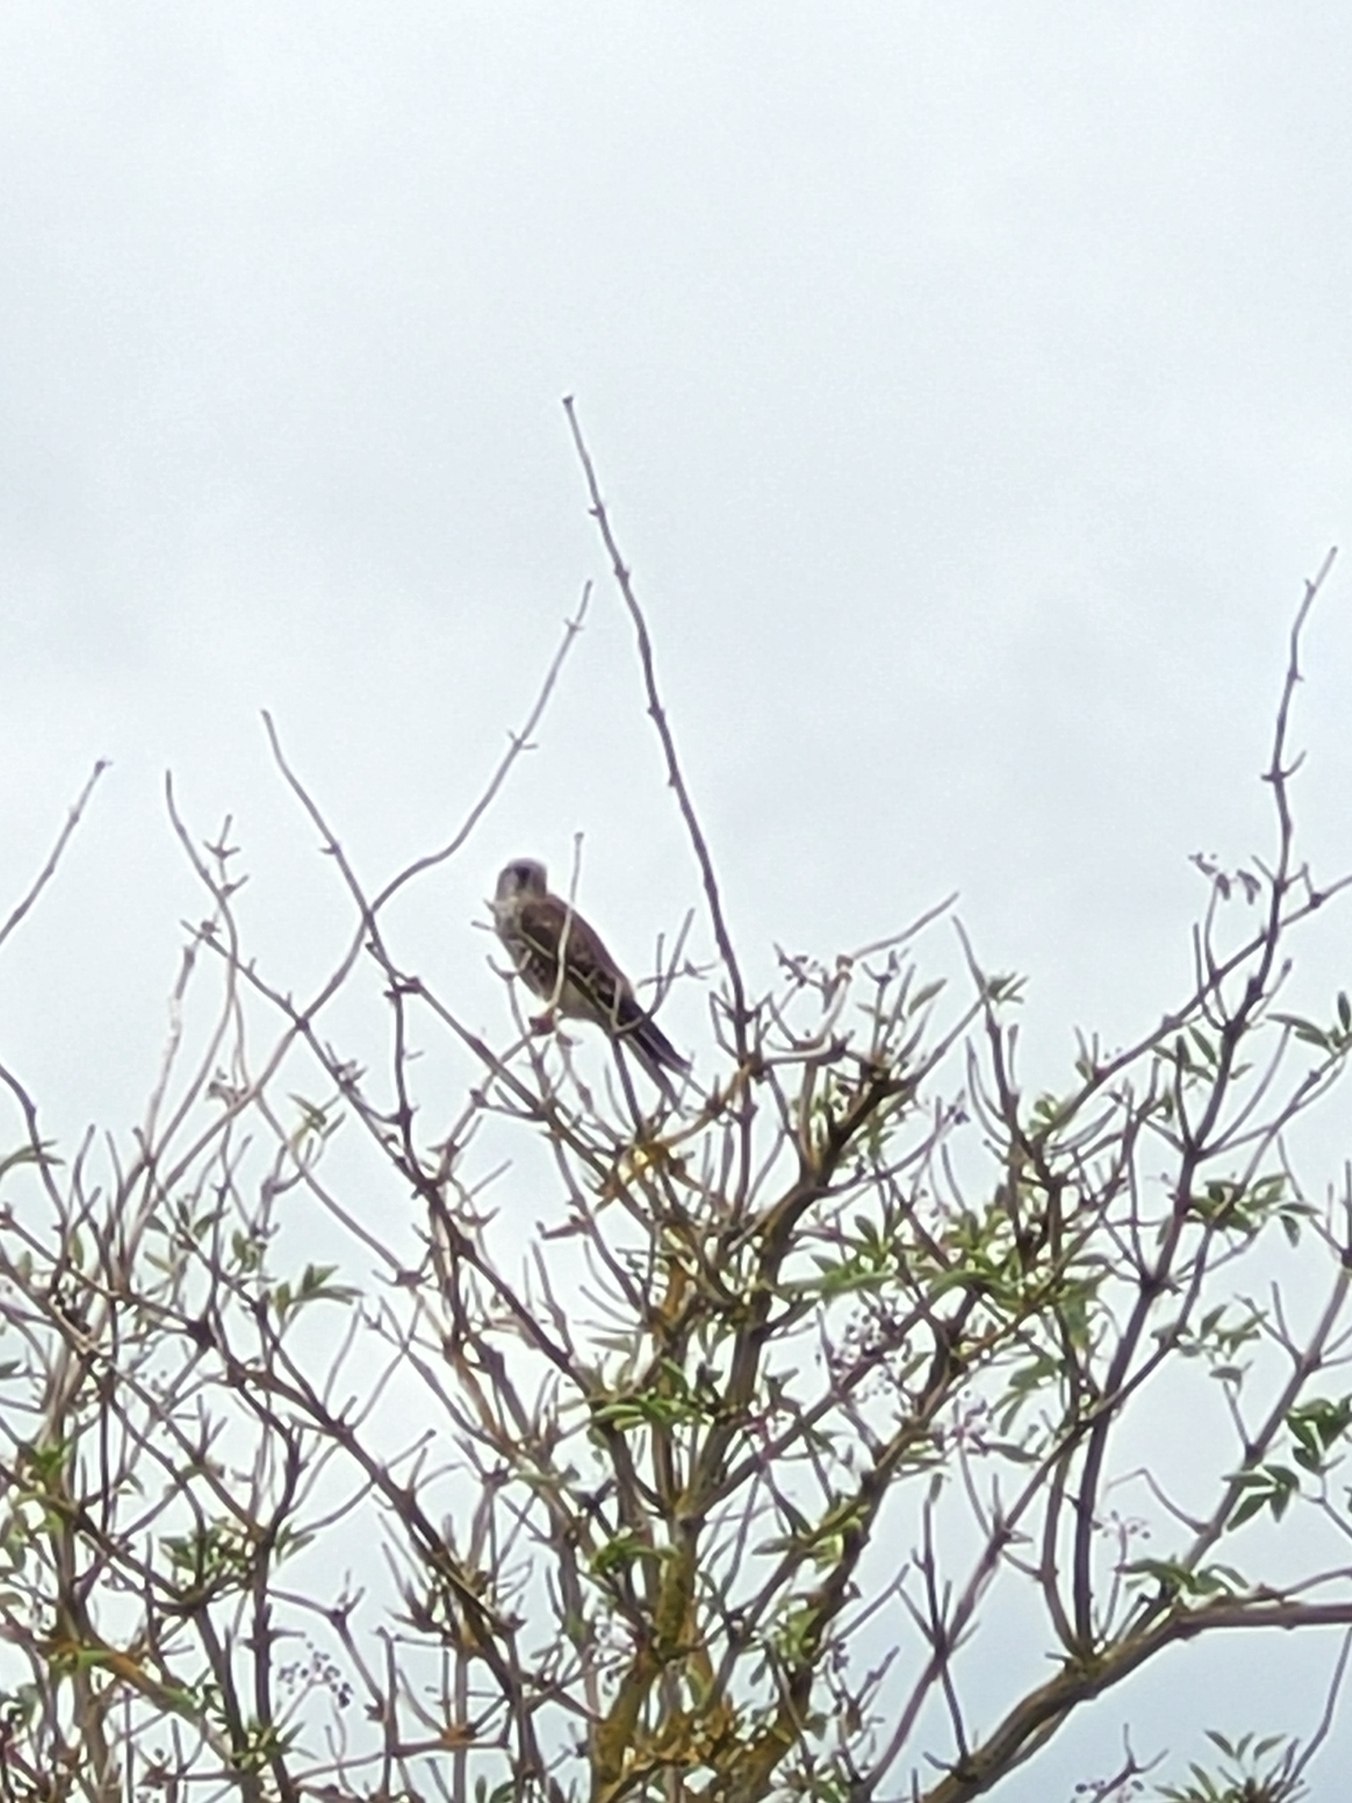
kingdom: Animalia
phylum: Chordata
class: Aves
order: Falconiformes
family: Falconidae
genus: Falco
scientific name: Falco tinnunculus
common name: Tårnfalk
